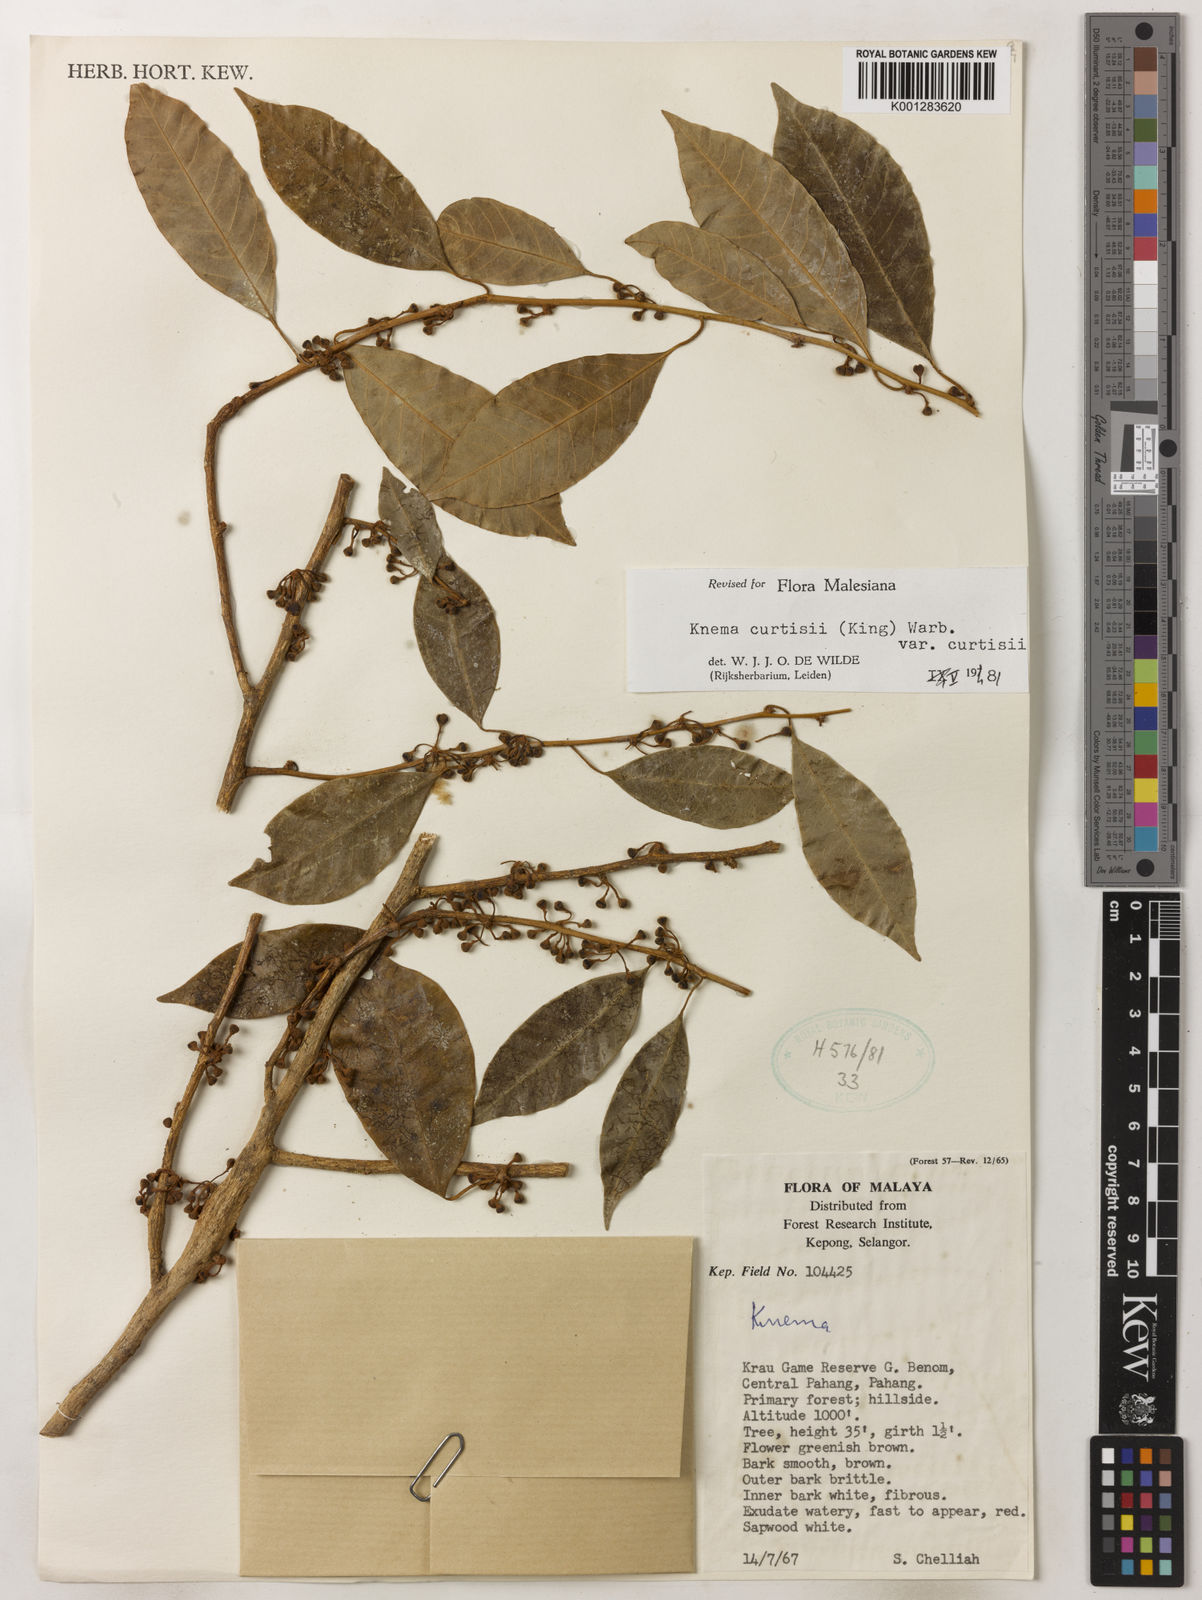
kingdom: Plantae
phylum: Tracheophyta
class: Magnoliopsida
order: Magnoliales
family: Myristicaceae
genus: Knema
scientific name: Knema curtisii
